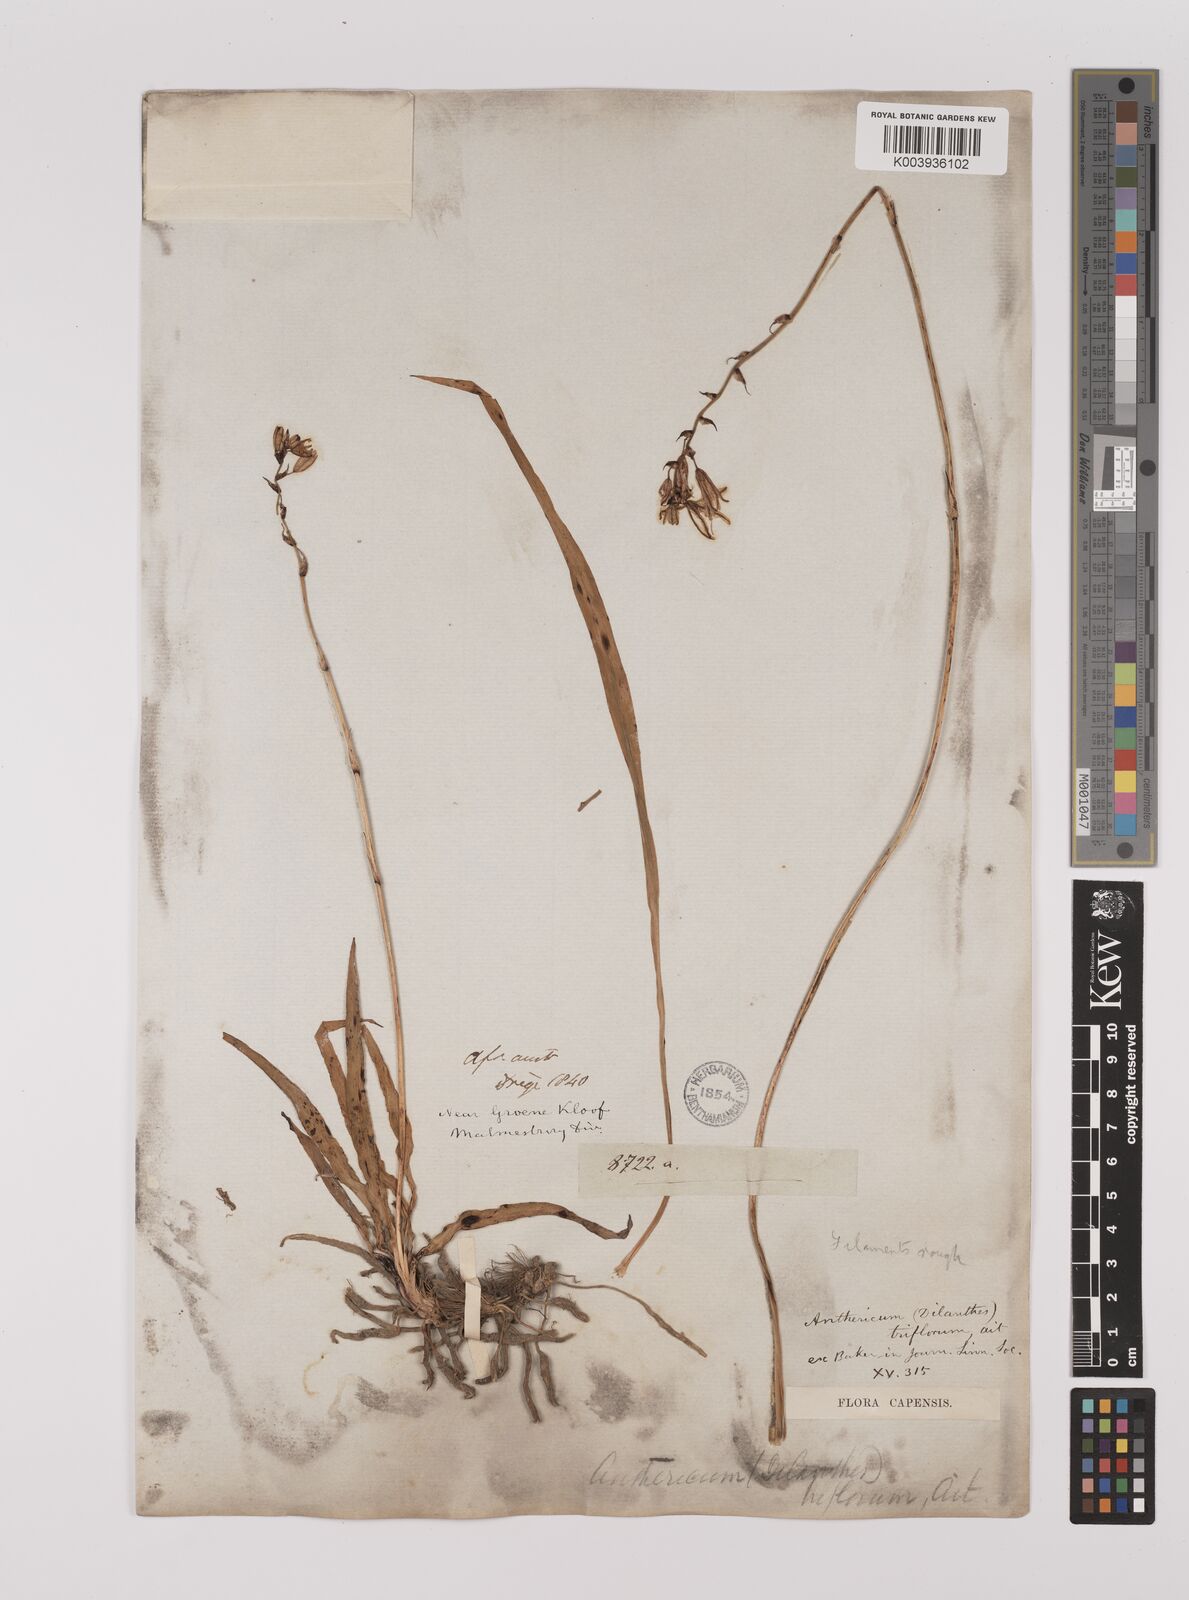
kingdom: Plantae
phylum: Tracheophyta
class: Liliopsida
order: Asparagales
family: Asparagaceae
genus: Chlorophytum
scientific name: Chlorophytum triflorum
